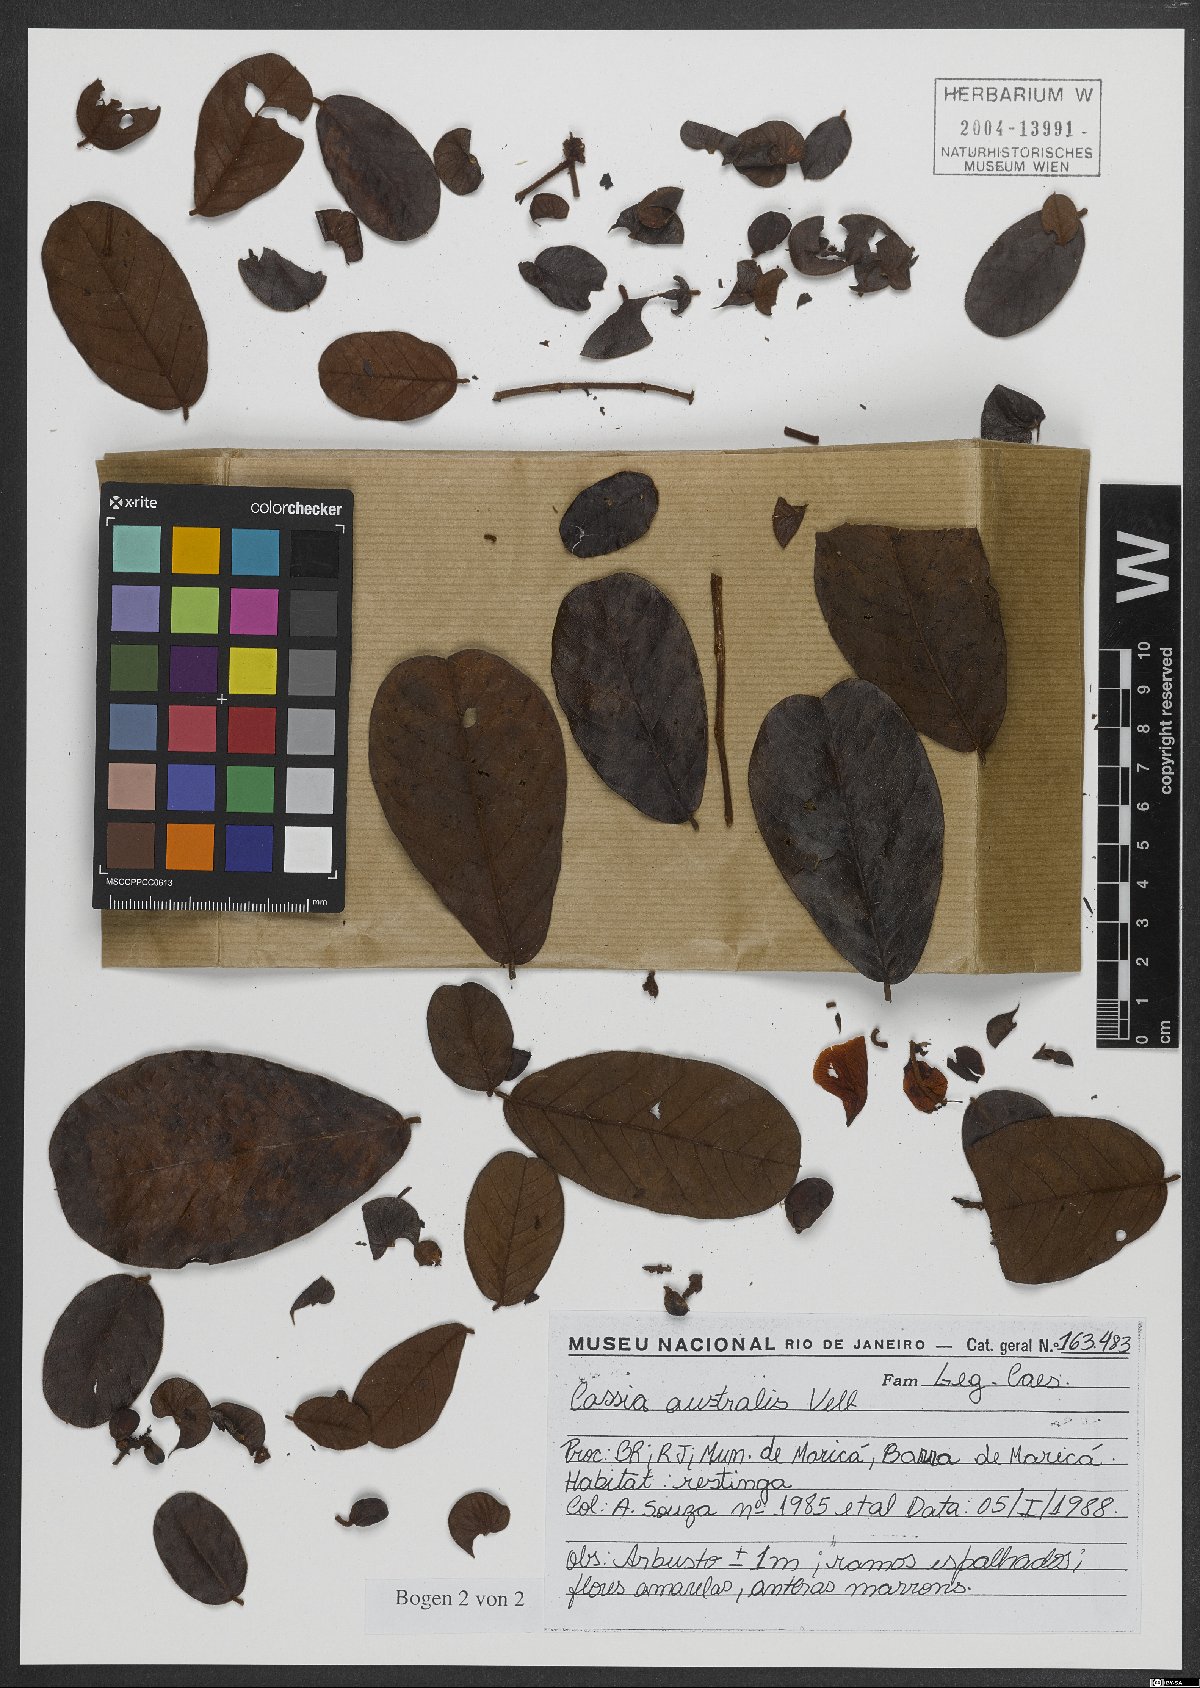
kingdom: Plantae
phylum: Tracheophyta
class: Magnoliopsida
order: Fabales
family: Fabaceae
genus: Senna
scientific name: Senna appendiculata
